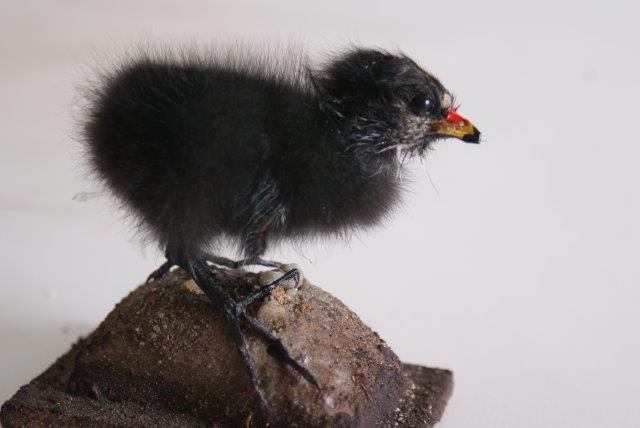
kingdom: Animalia
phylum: Chordata
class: Aves
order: Gruiformes
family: Rallidae
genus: Gallinula
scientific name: Gallinula chloropus
